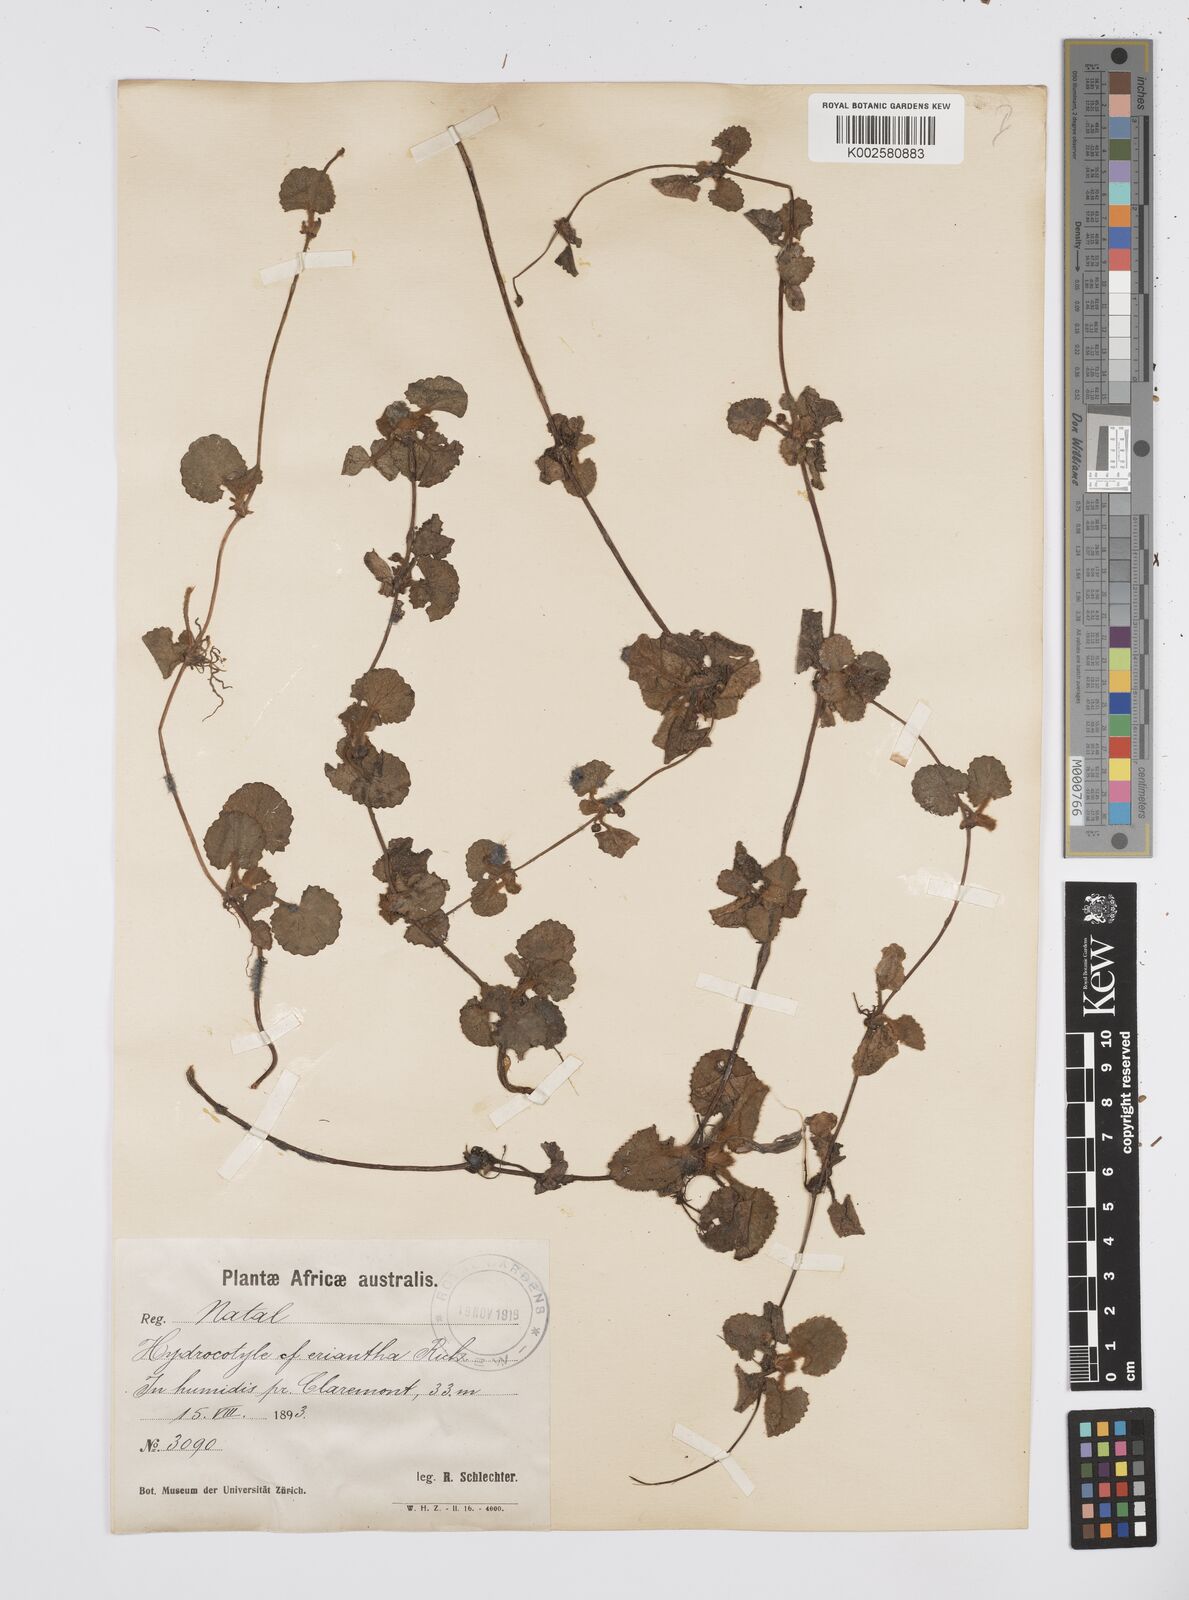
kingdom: Plantae
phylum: Tracheophyta
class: Magnoliopsida
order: Apiales
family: Apiaceae
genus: Centella
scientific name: Centella eriantha
